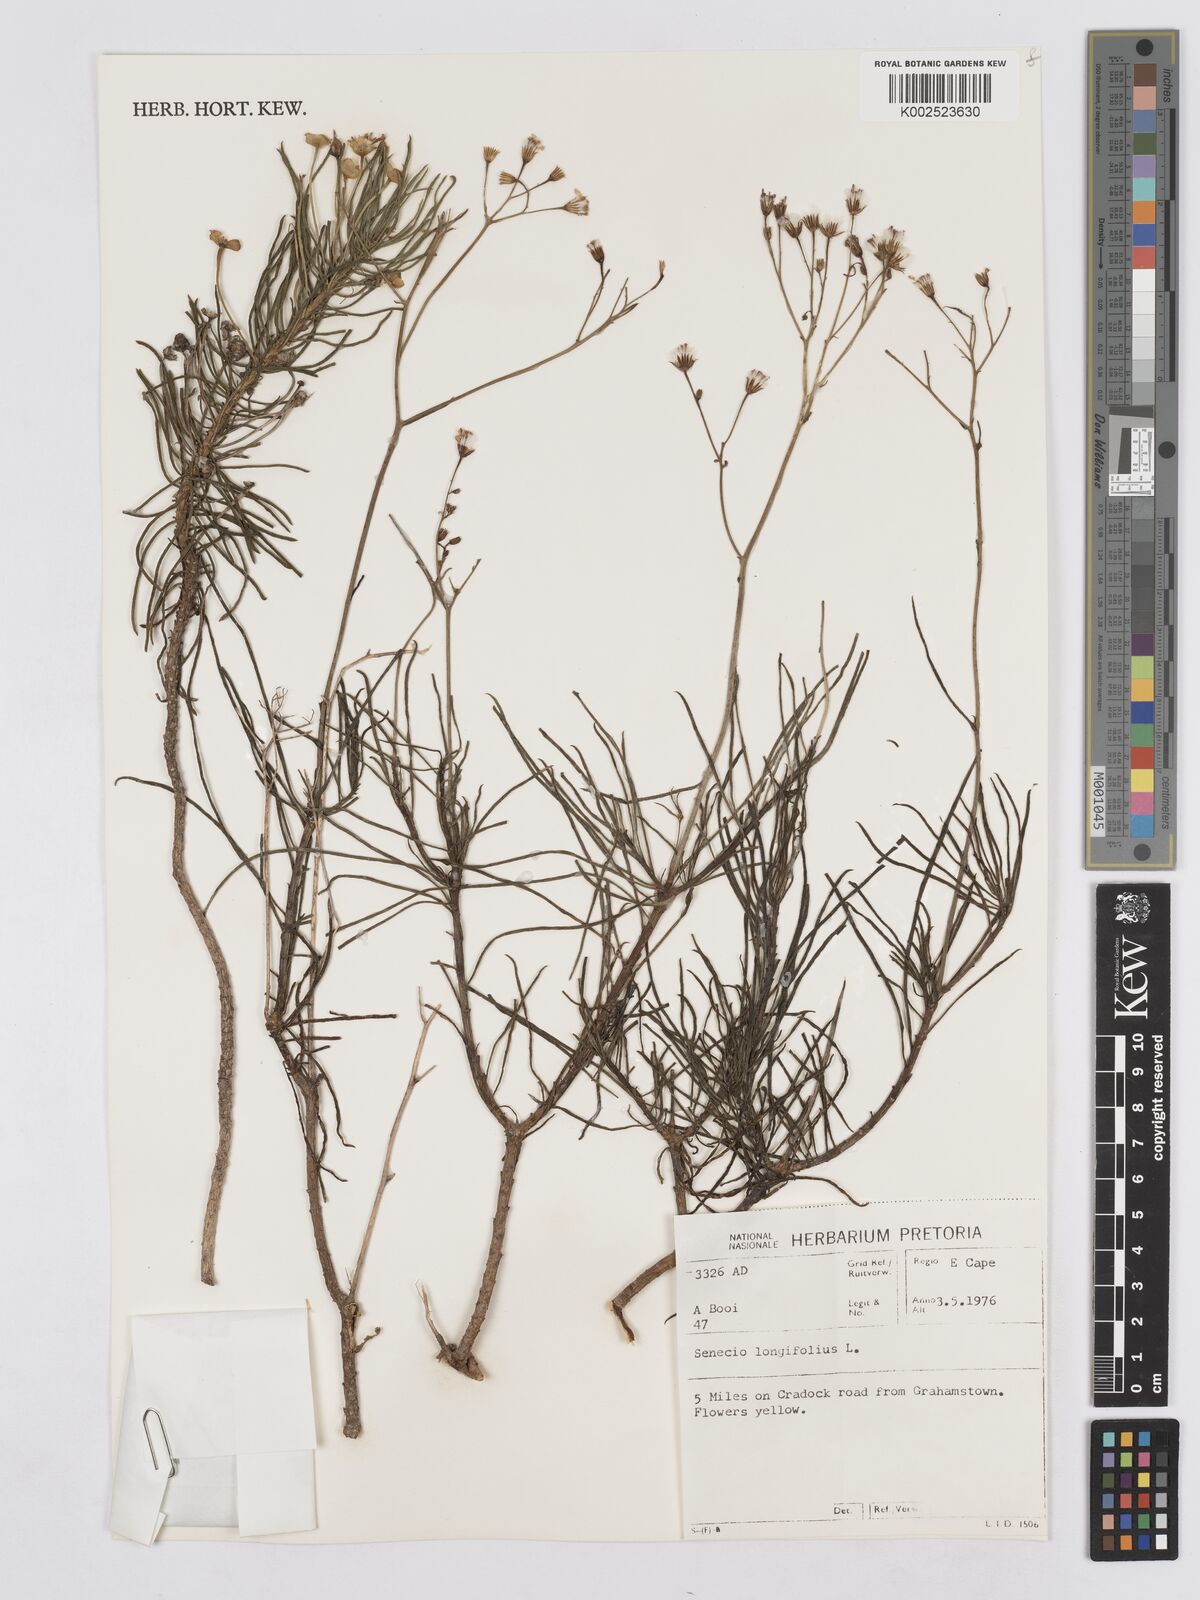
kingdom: Plantae
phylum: Tracheophyta
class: Magnoliopsida
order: Asterales
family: Asteraceae
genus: Senecio
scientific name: Senecio linifolius
